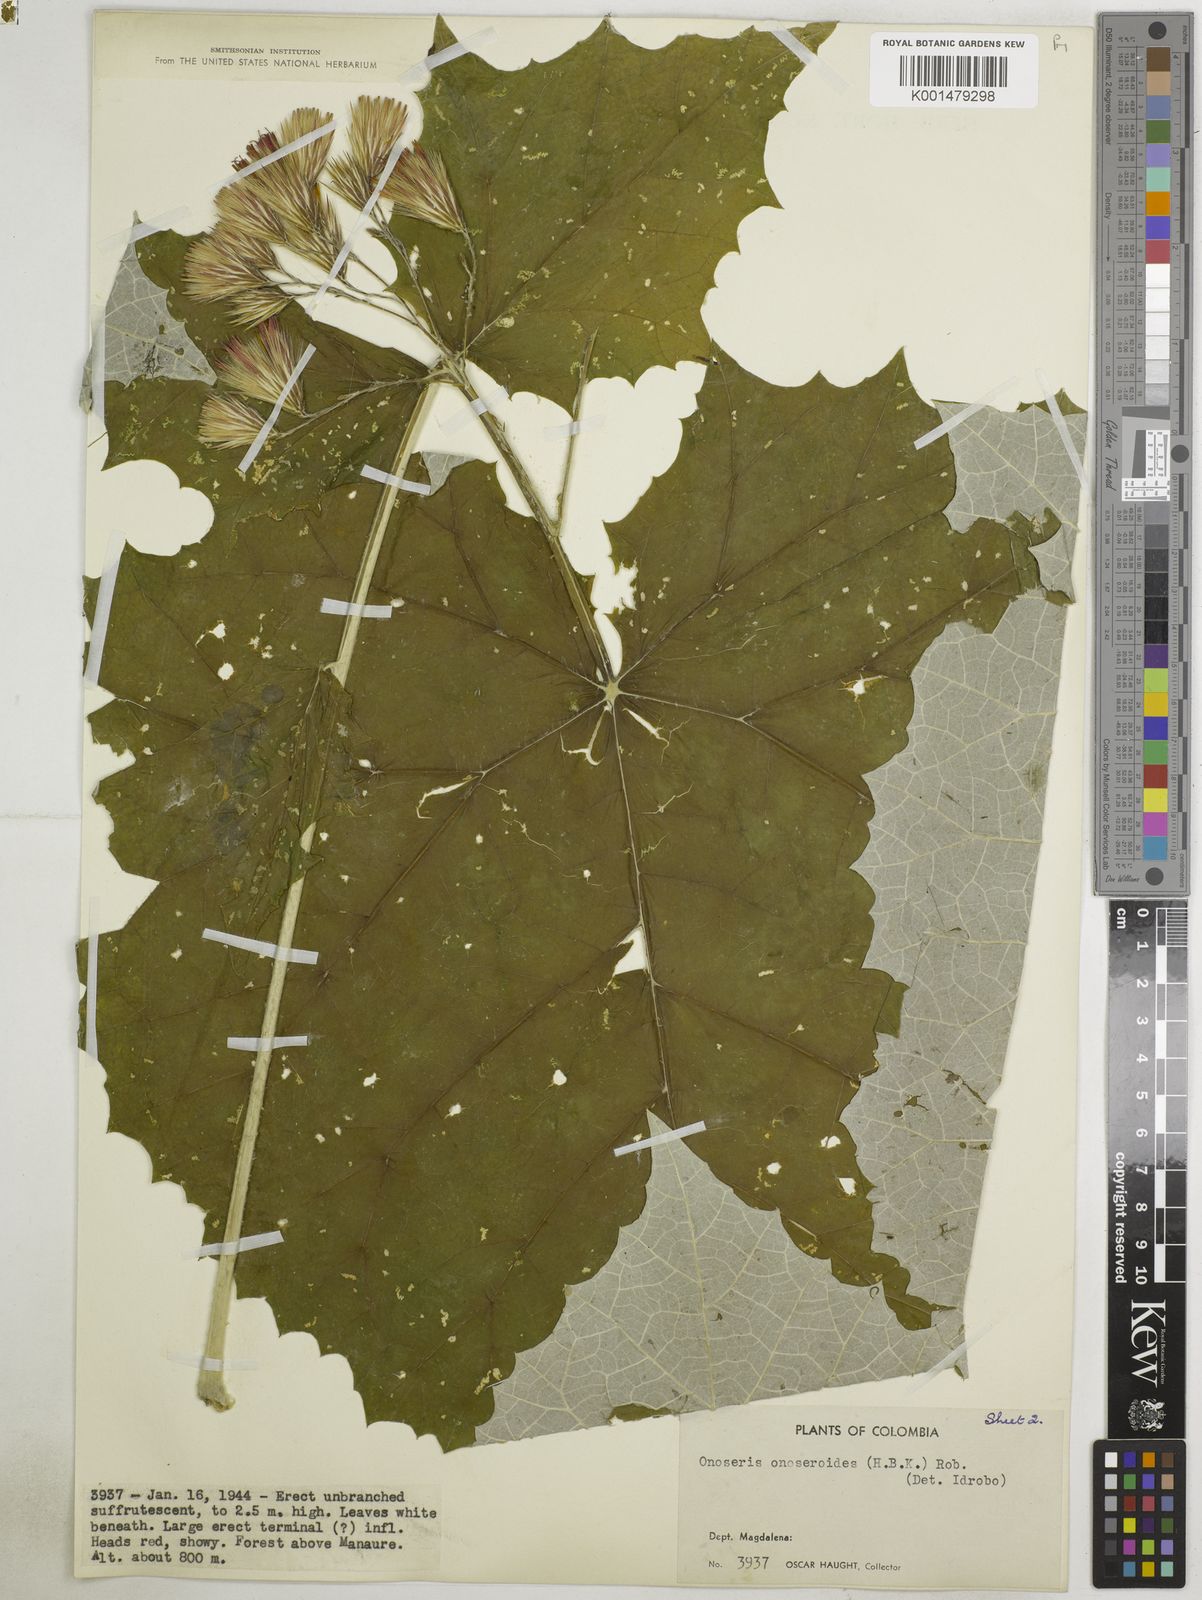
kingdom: Plantae
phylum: Tracheophyta
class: Magnoliopsida
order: Asterales
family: Asteraceae
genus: Onoseris
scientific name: Onoseris onoseroides
